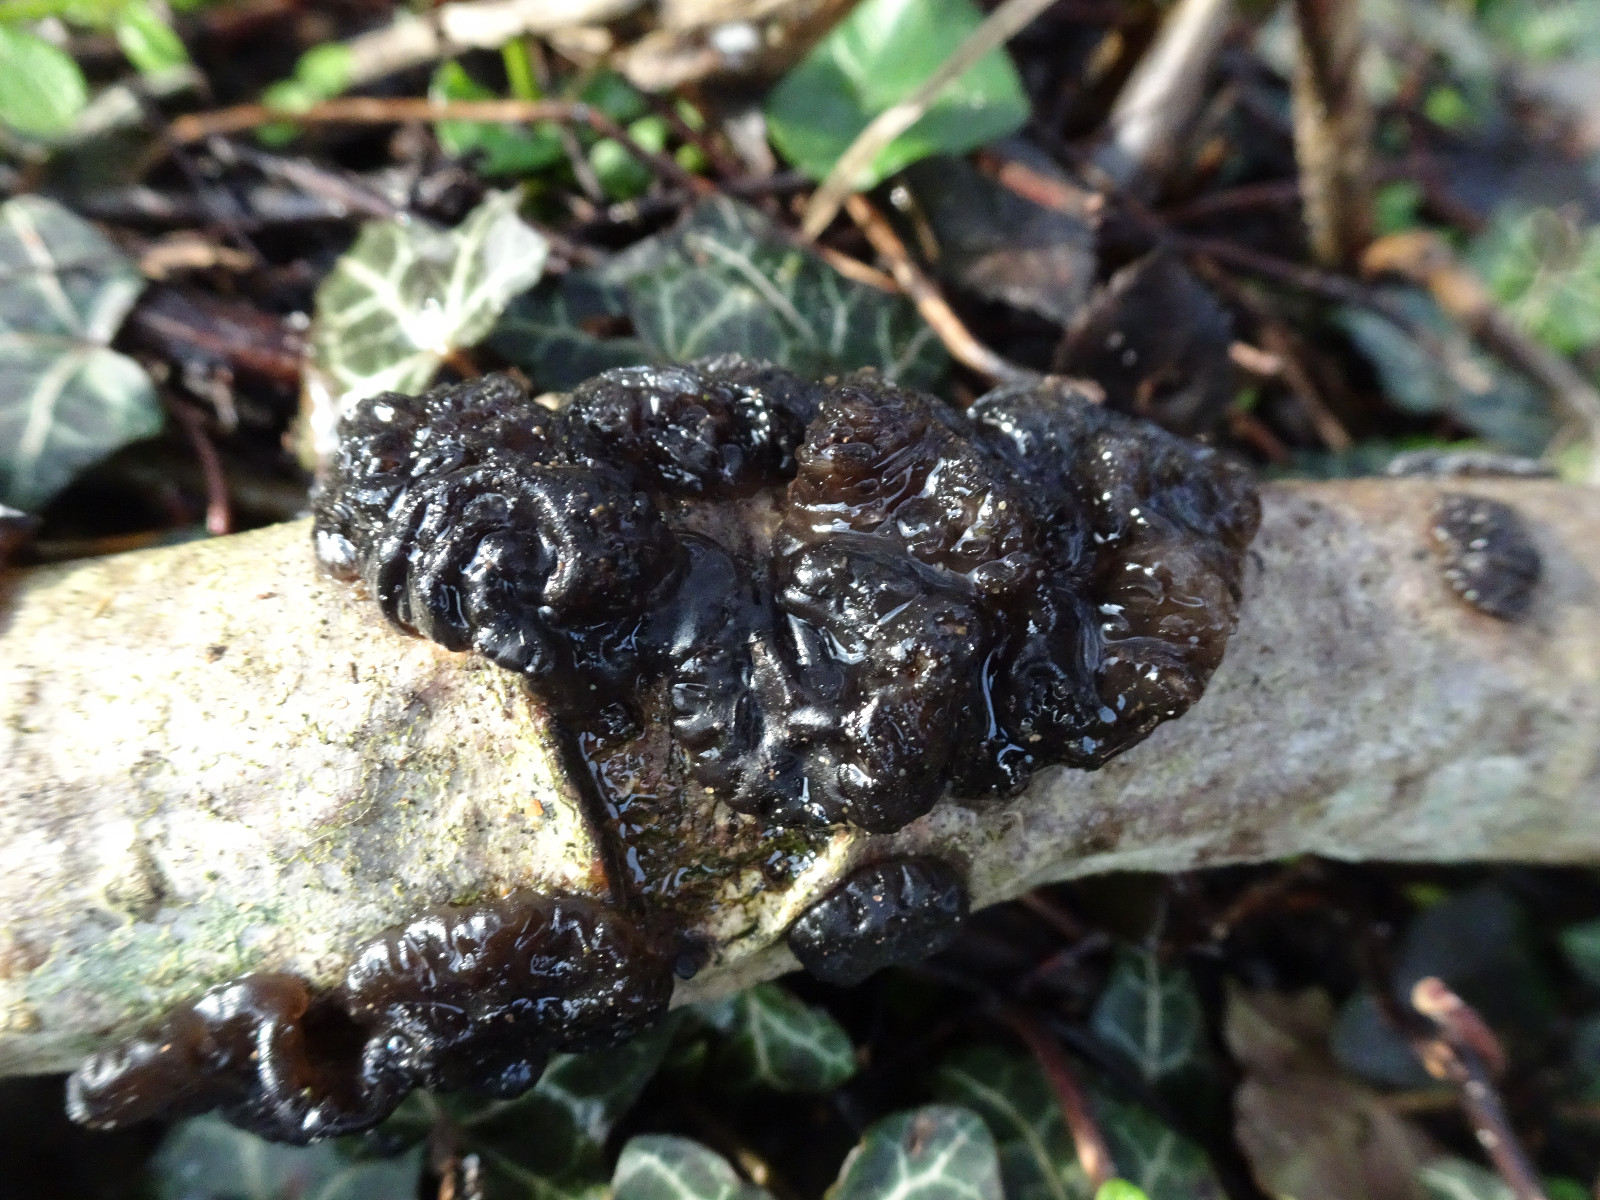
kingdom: Fungi
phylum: Basidiomycota
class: Agaricomycetes
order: Auriculariales
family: Auriculariaceae
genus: Exidia
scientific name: Exidia nigricans
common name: almindelig bævretop
